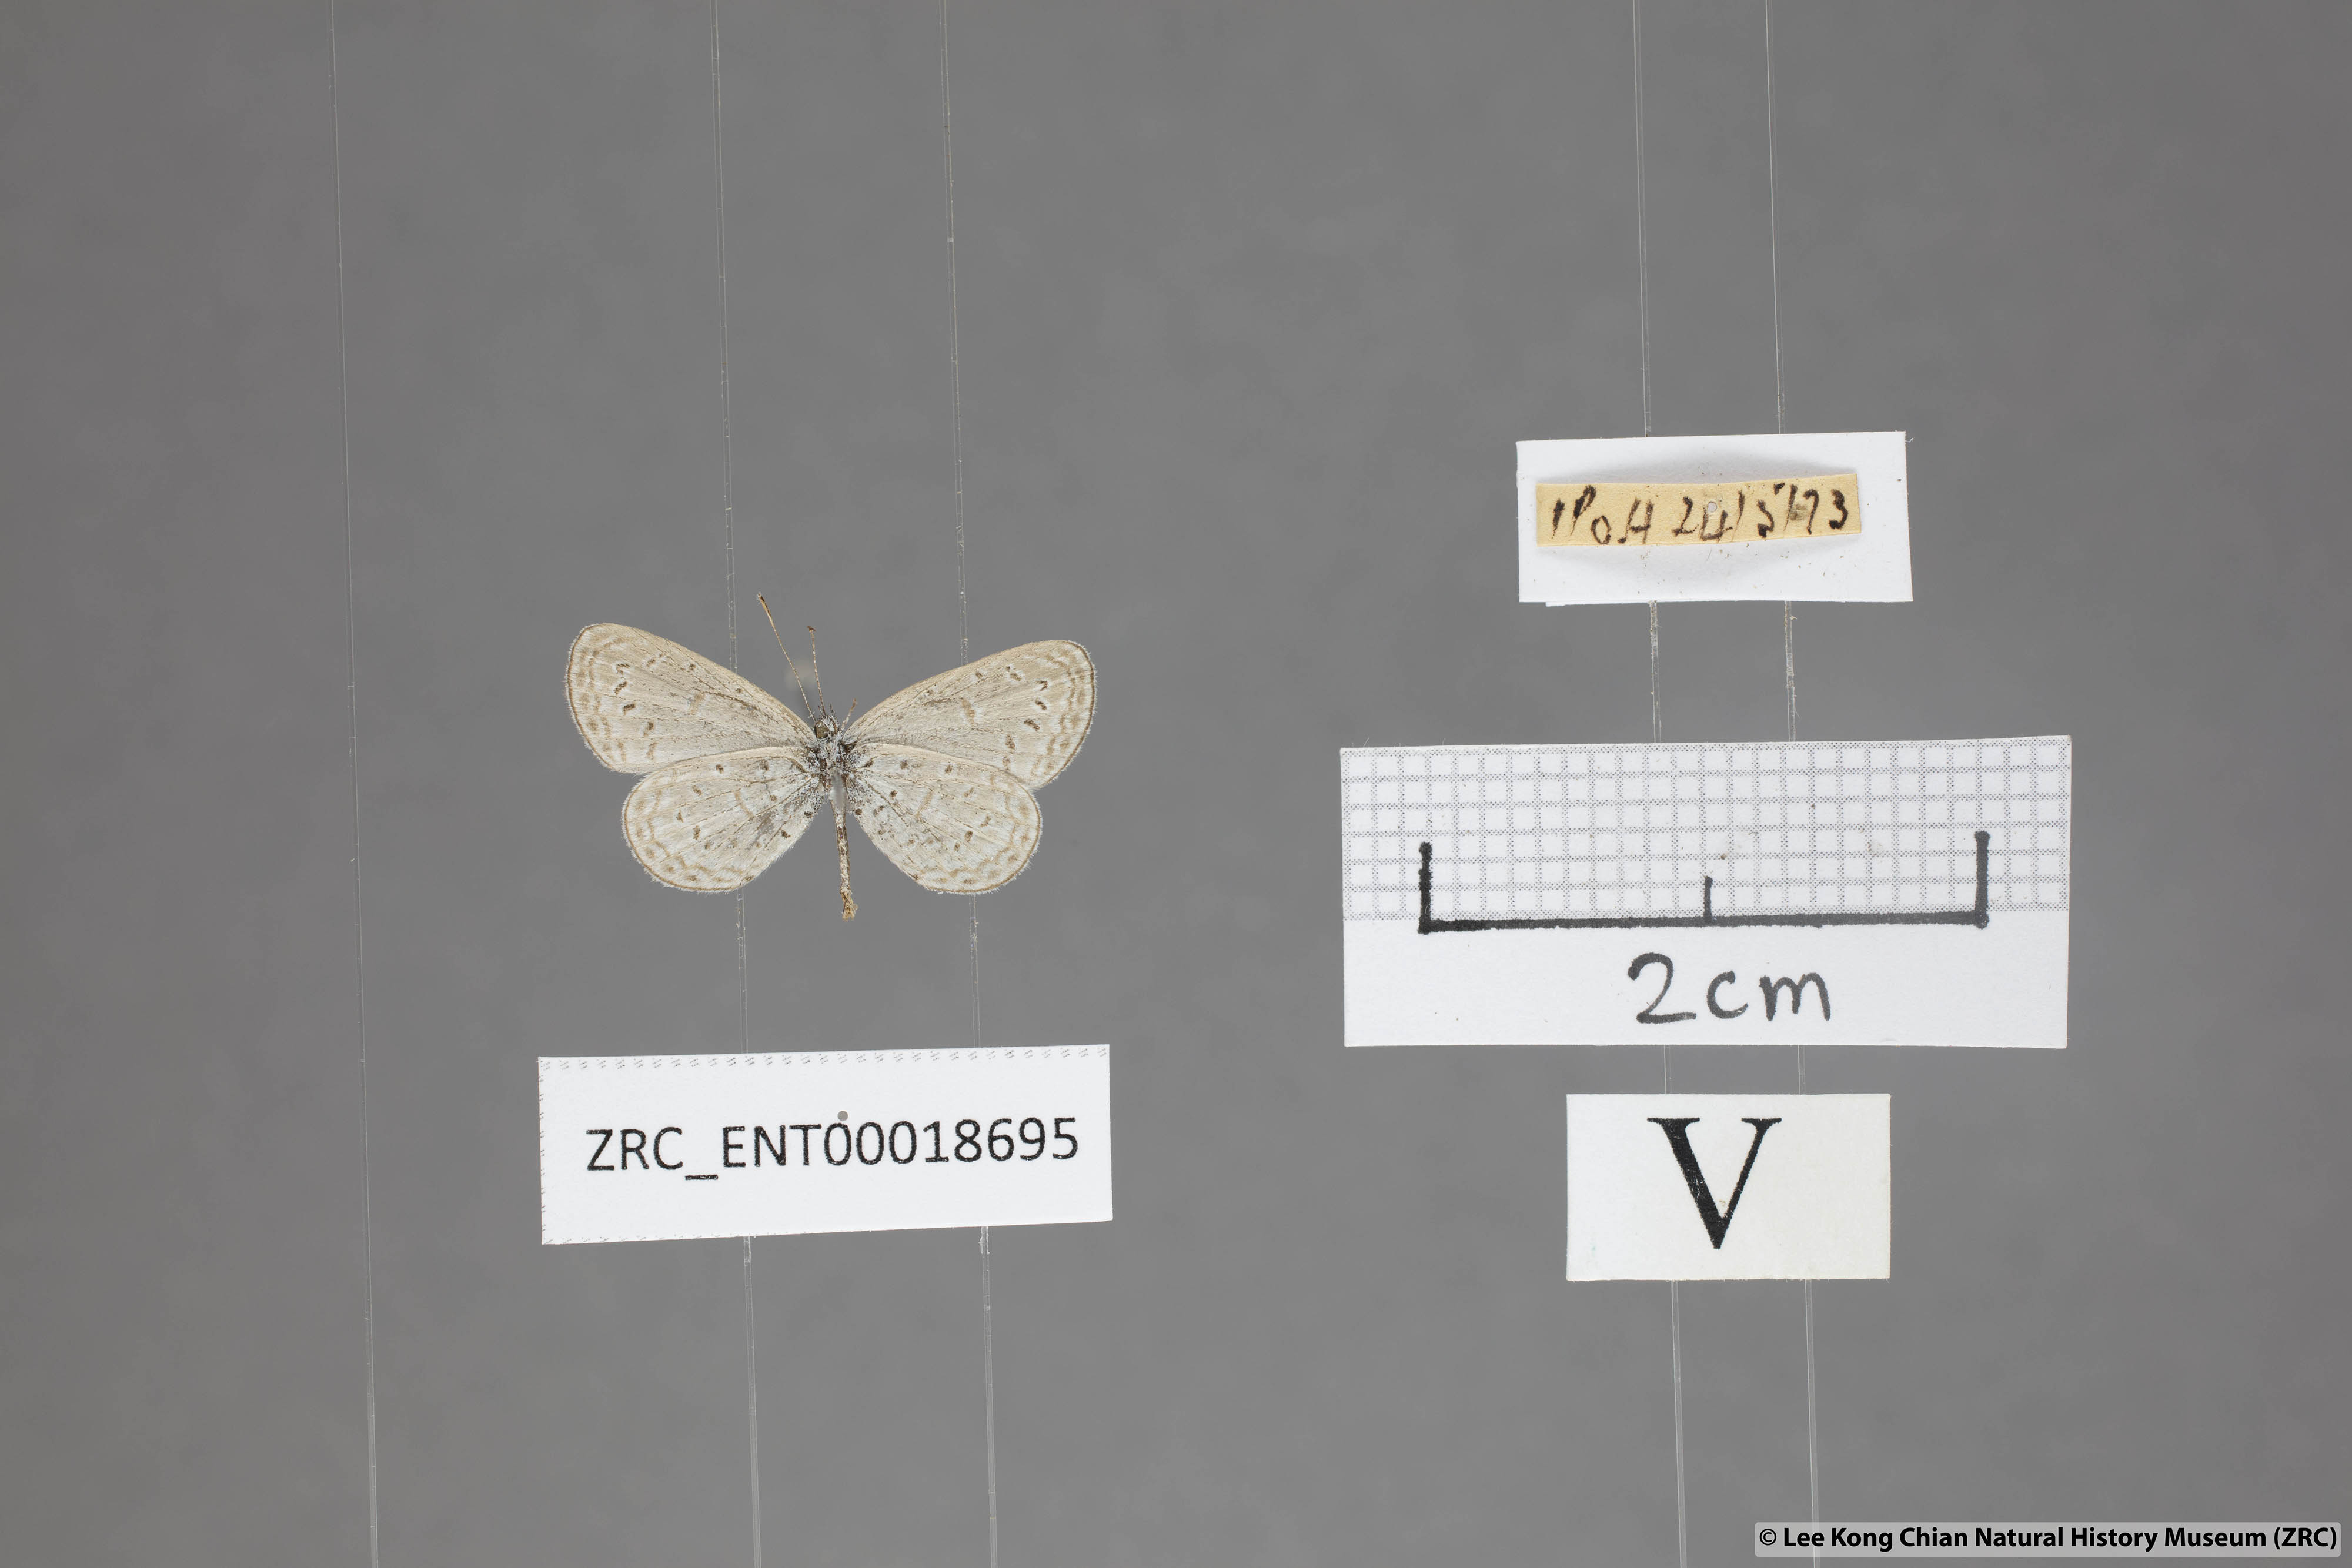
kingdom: Animalia
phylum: Arthropoda
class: Insecta
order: Lepidoptera
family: Lycaenidae
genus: Zizula
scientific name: Zizula hylax
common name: Gaika blue
